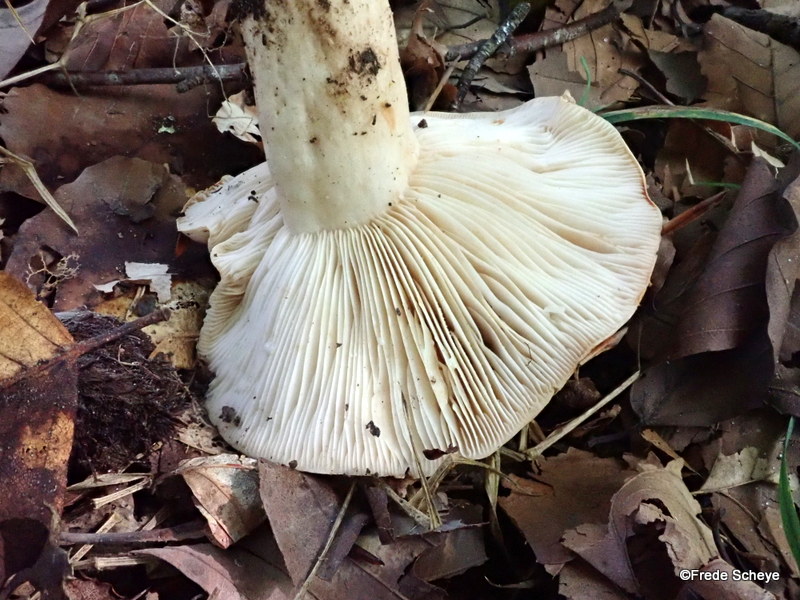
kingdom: Fungi
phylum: Basidiomycota
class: Agaricomycetes
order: Russulales
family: Russulaceae
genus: Lactarius
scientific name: Lactarius pallidus
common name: bleg mælkehat
